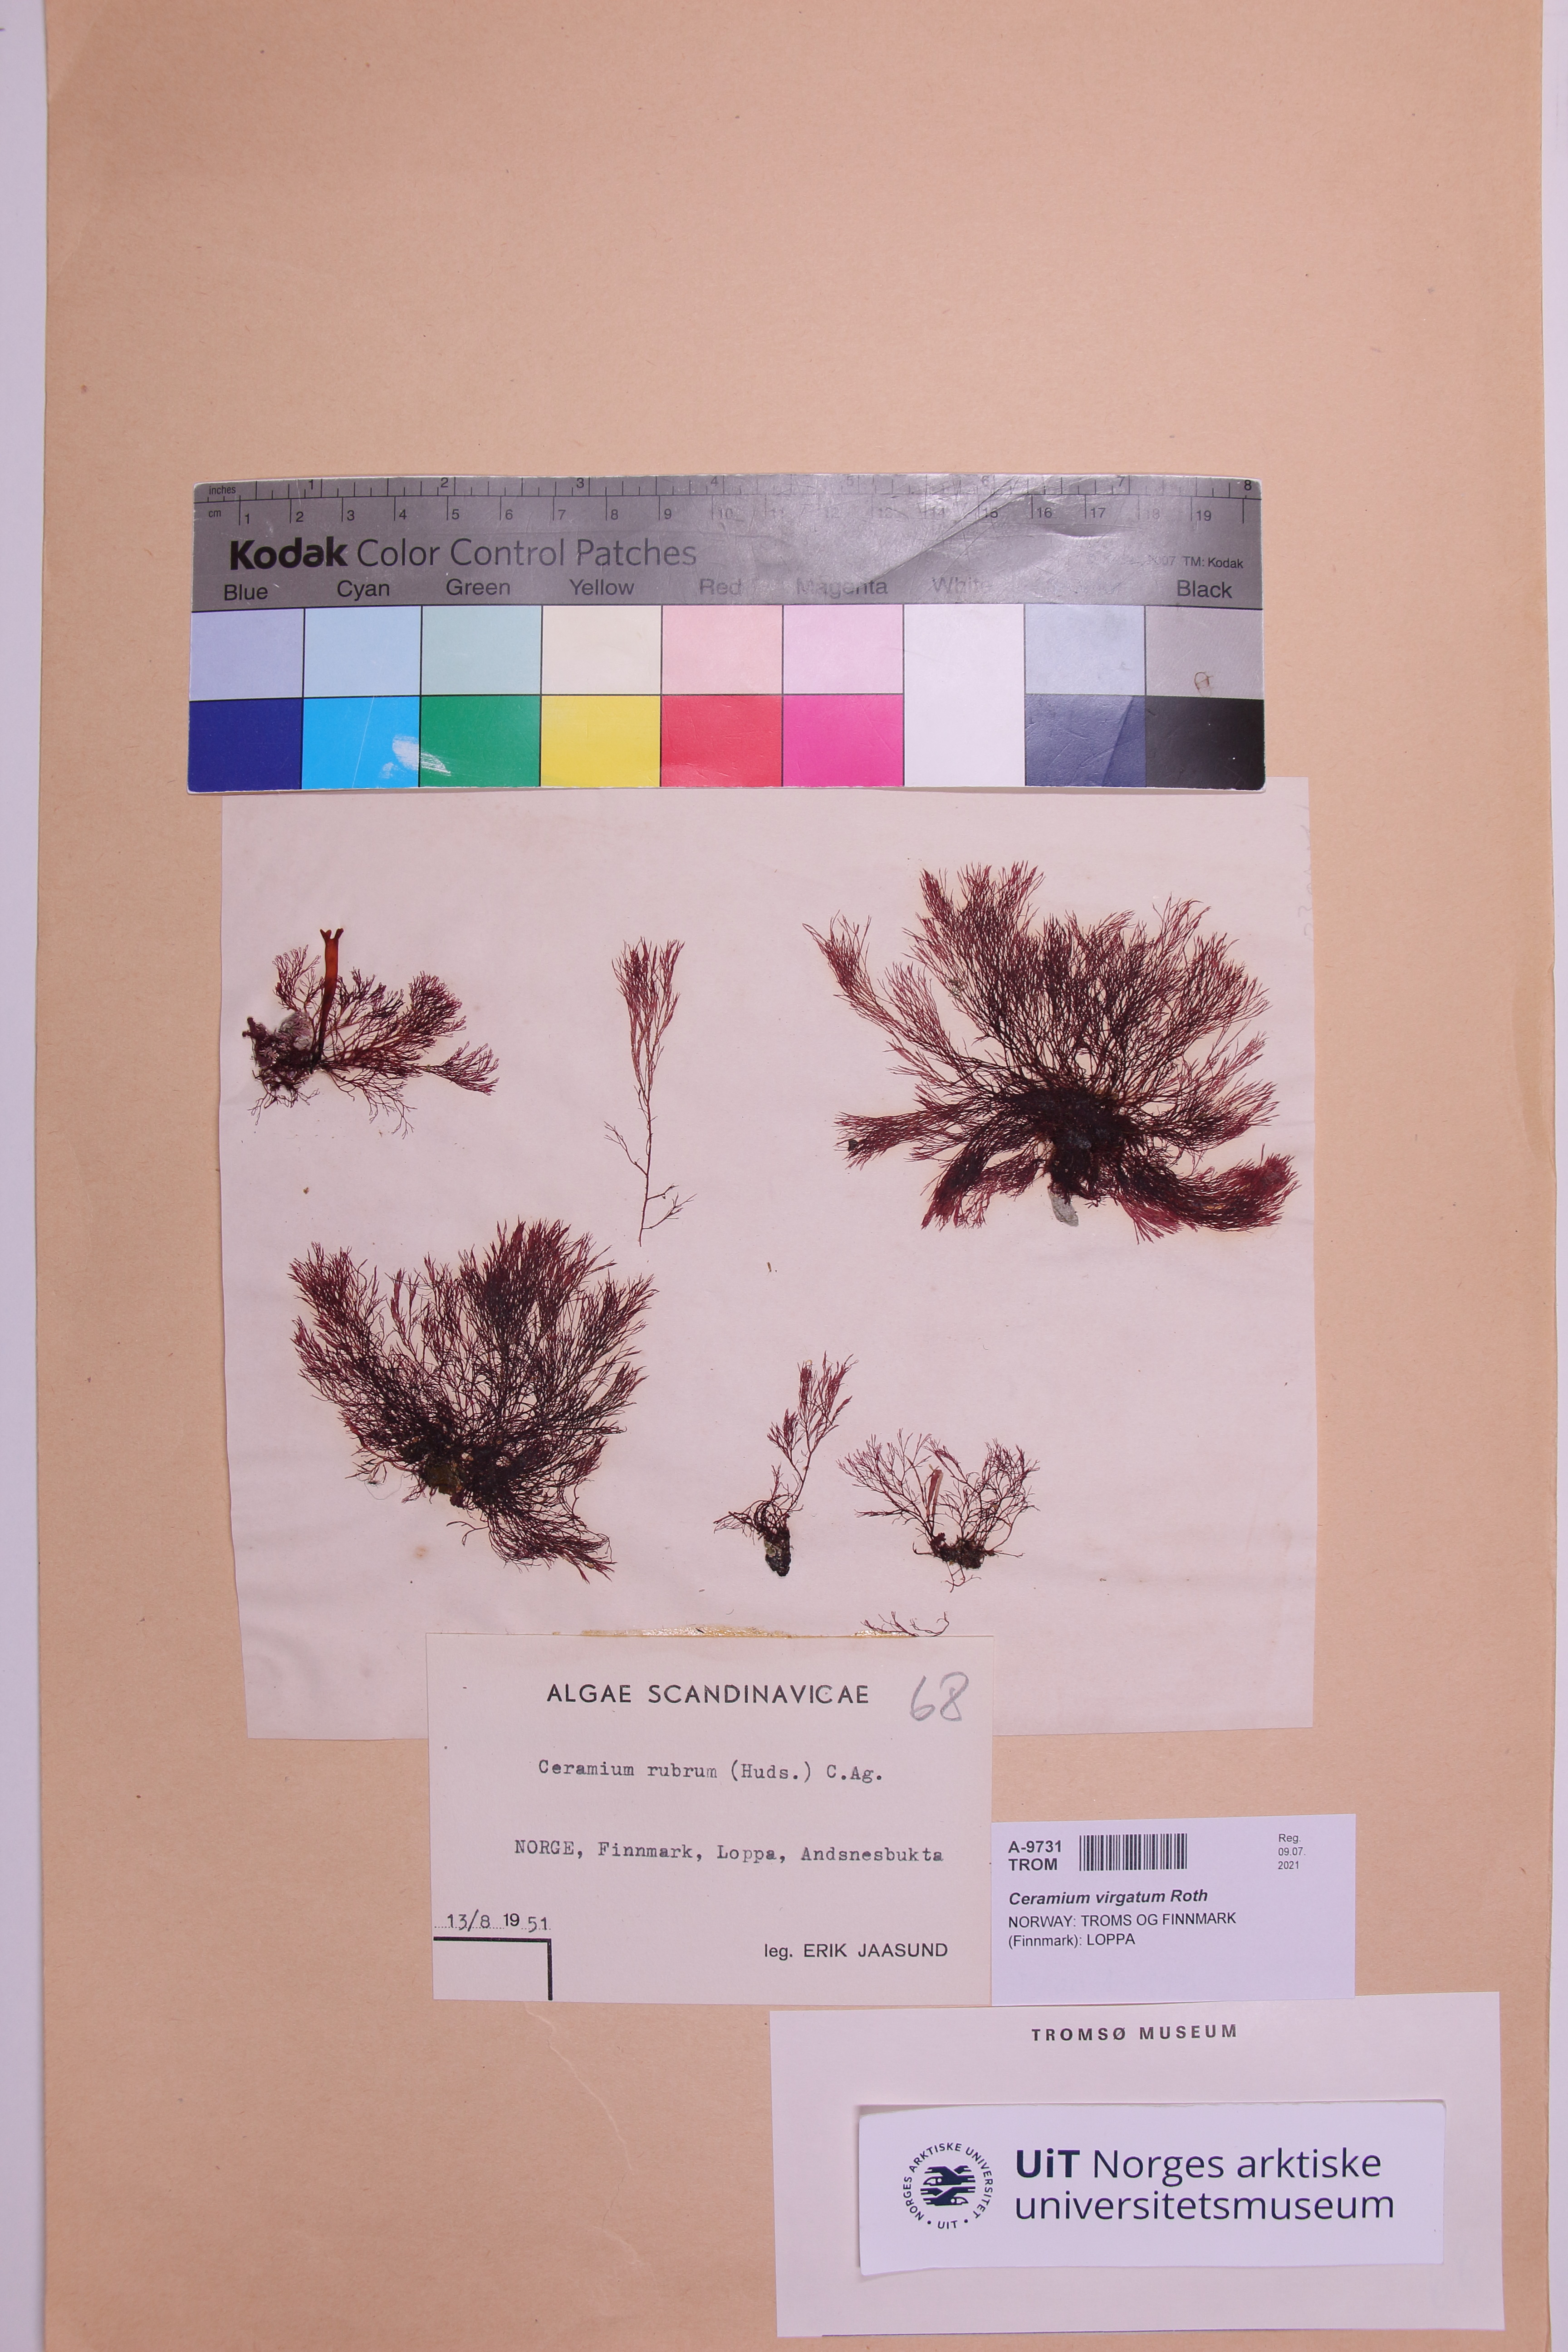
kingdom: Plantae
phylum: Rhodophyta
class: Florideophyceae
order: Ceramiales
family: Ceramiaceae
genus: Ceramium
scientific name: Ceramium virgatum
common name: Red hornweed
